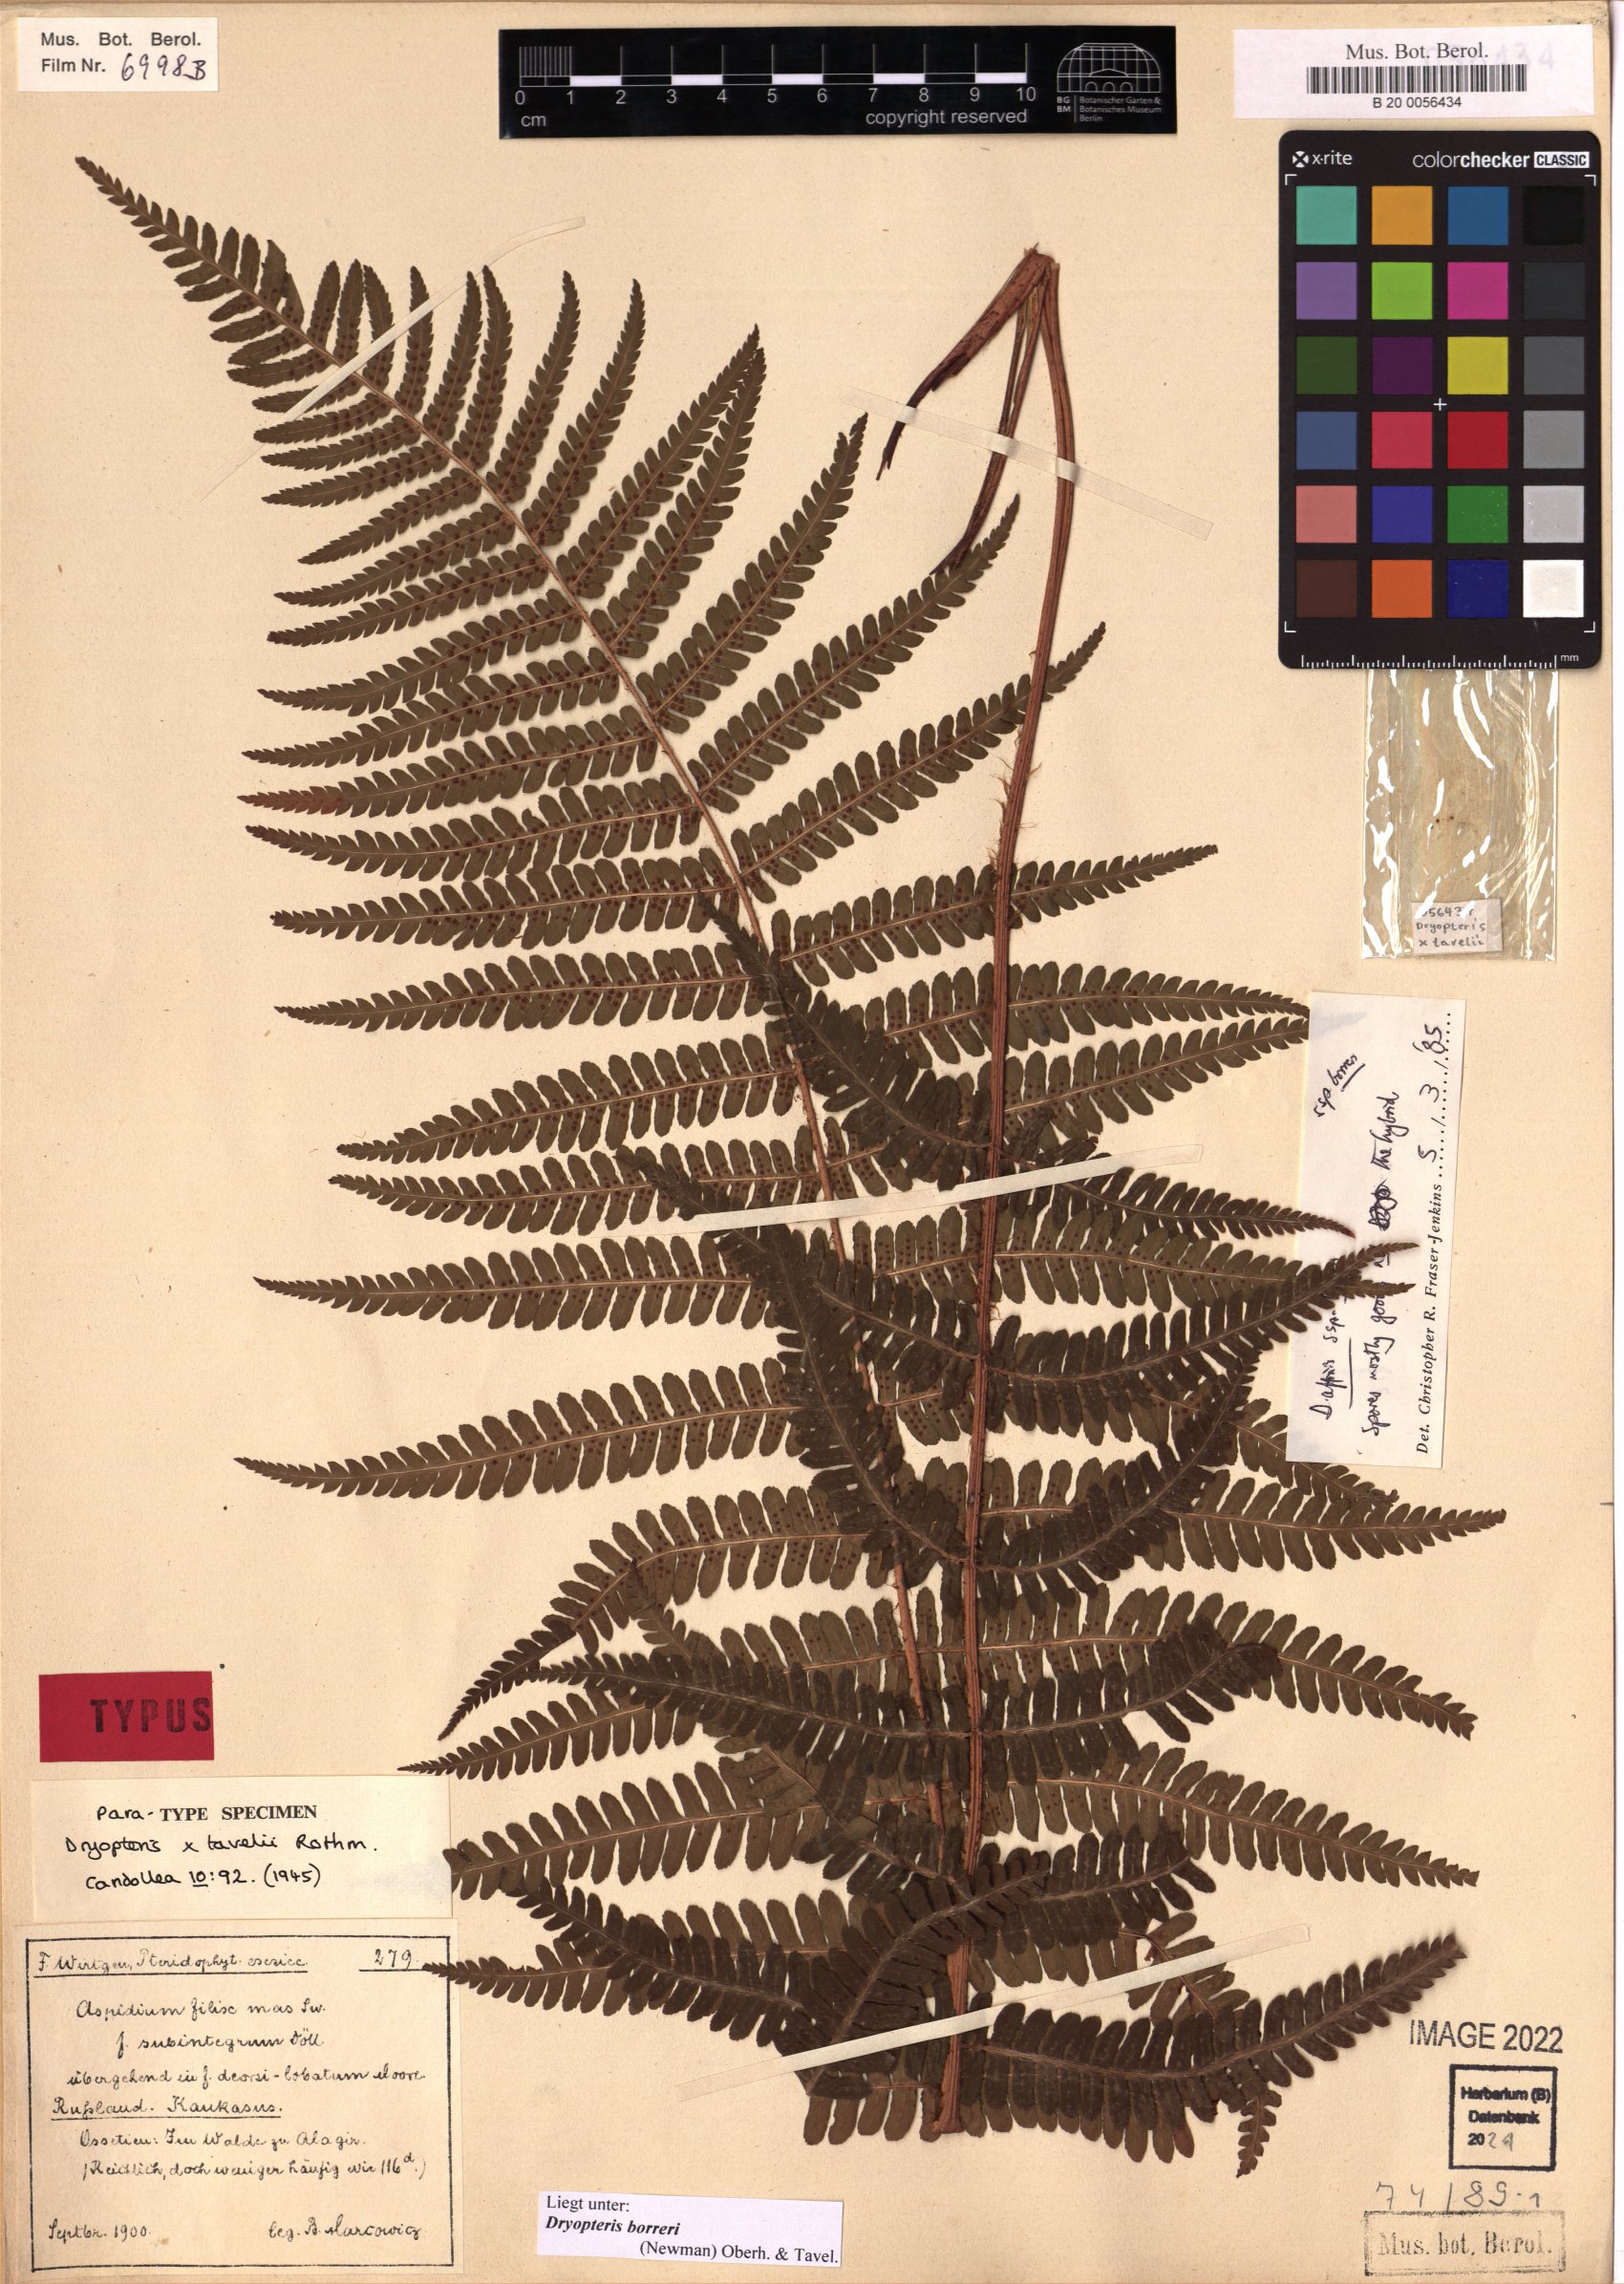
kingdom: Plantae
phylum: Tracheophyta
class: Polypodiopsida
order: Polypodiales
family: Dryopteridaceae
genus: Dryopteris
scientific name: Dryopteris borreri
